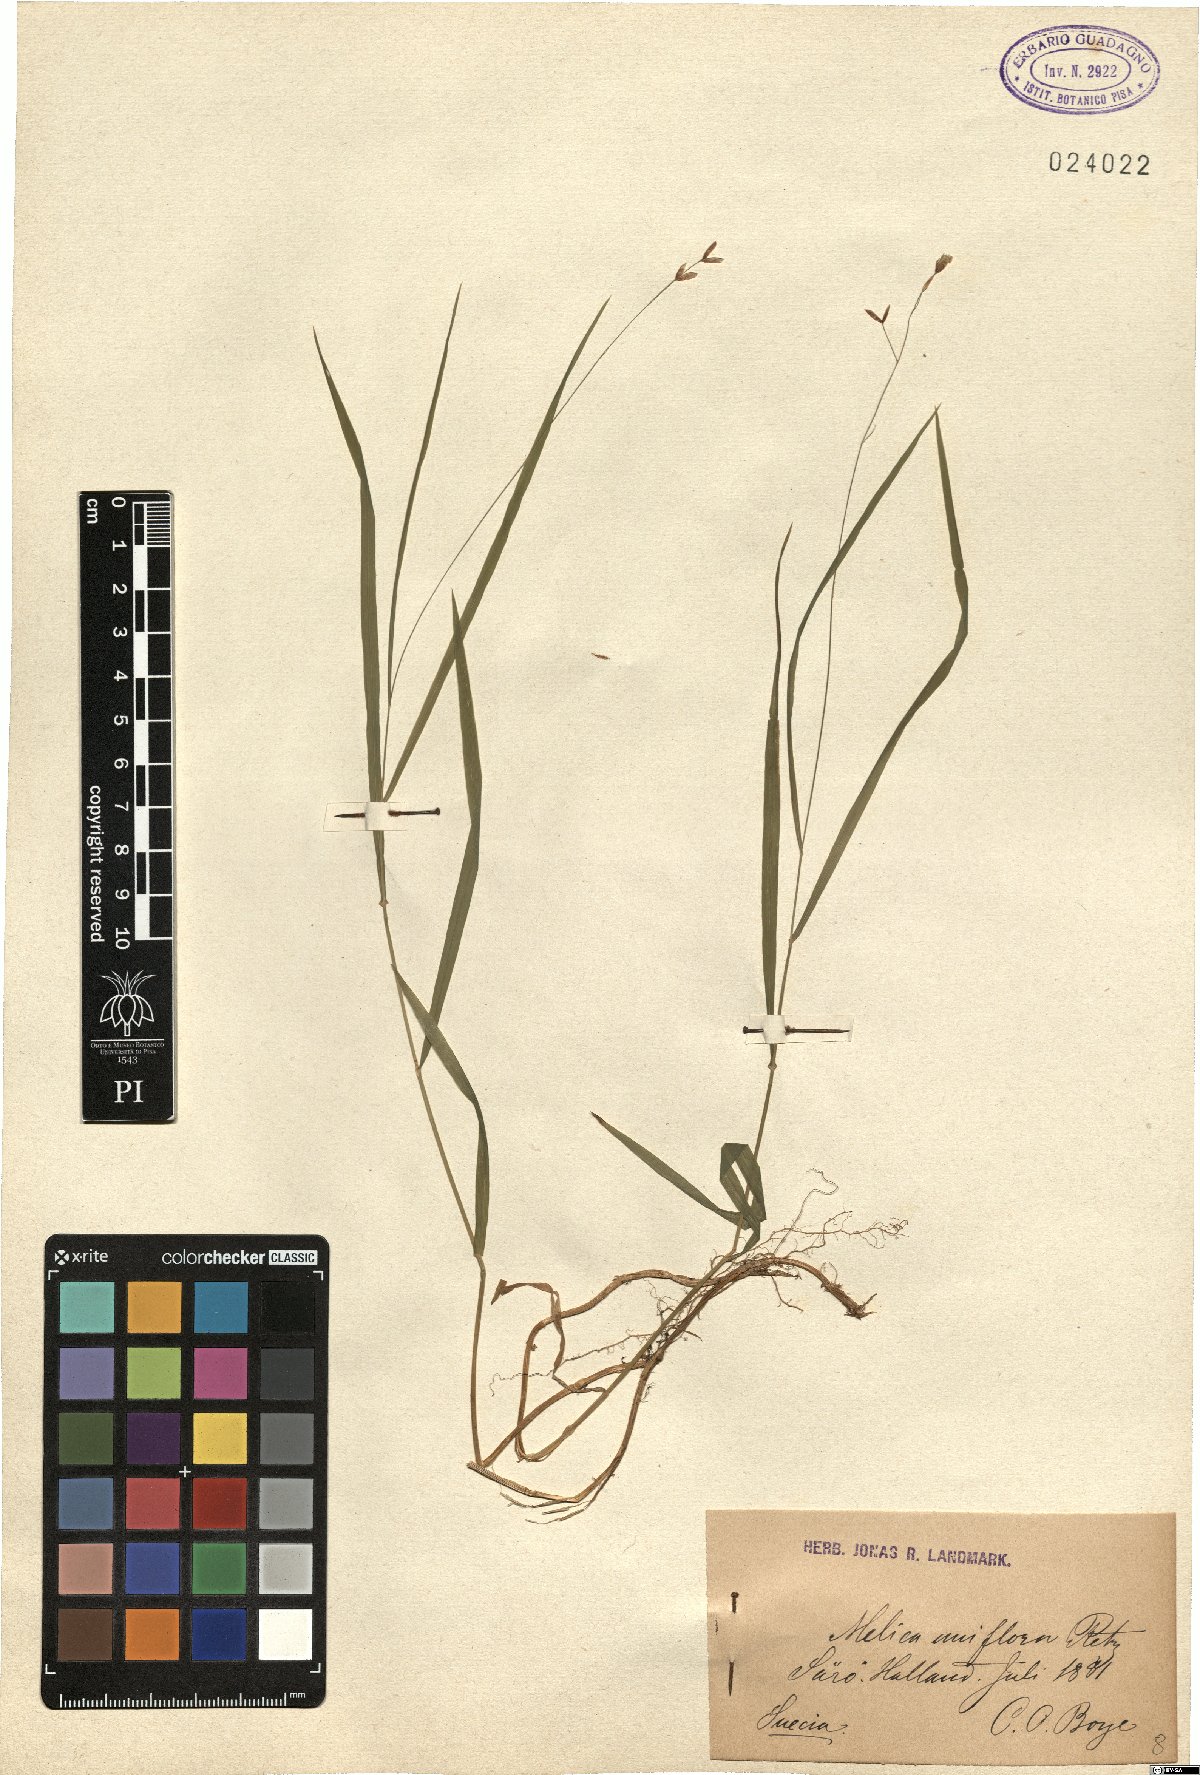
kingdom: Plantae
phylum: Tracheophyta
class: Liliopsida
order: Poales
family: Poaceae
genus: Melica
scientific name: Melica uniflora
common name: Wood melick
